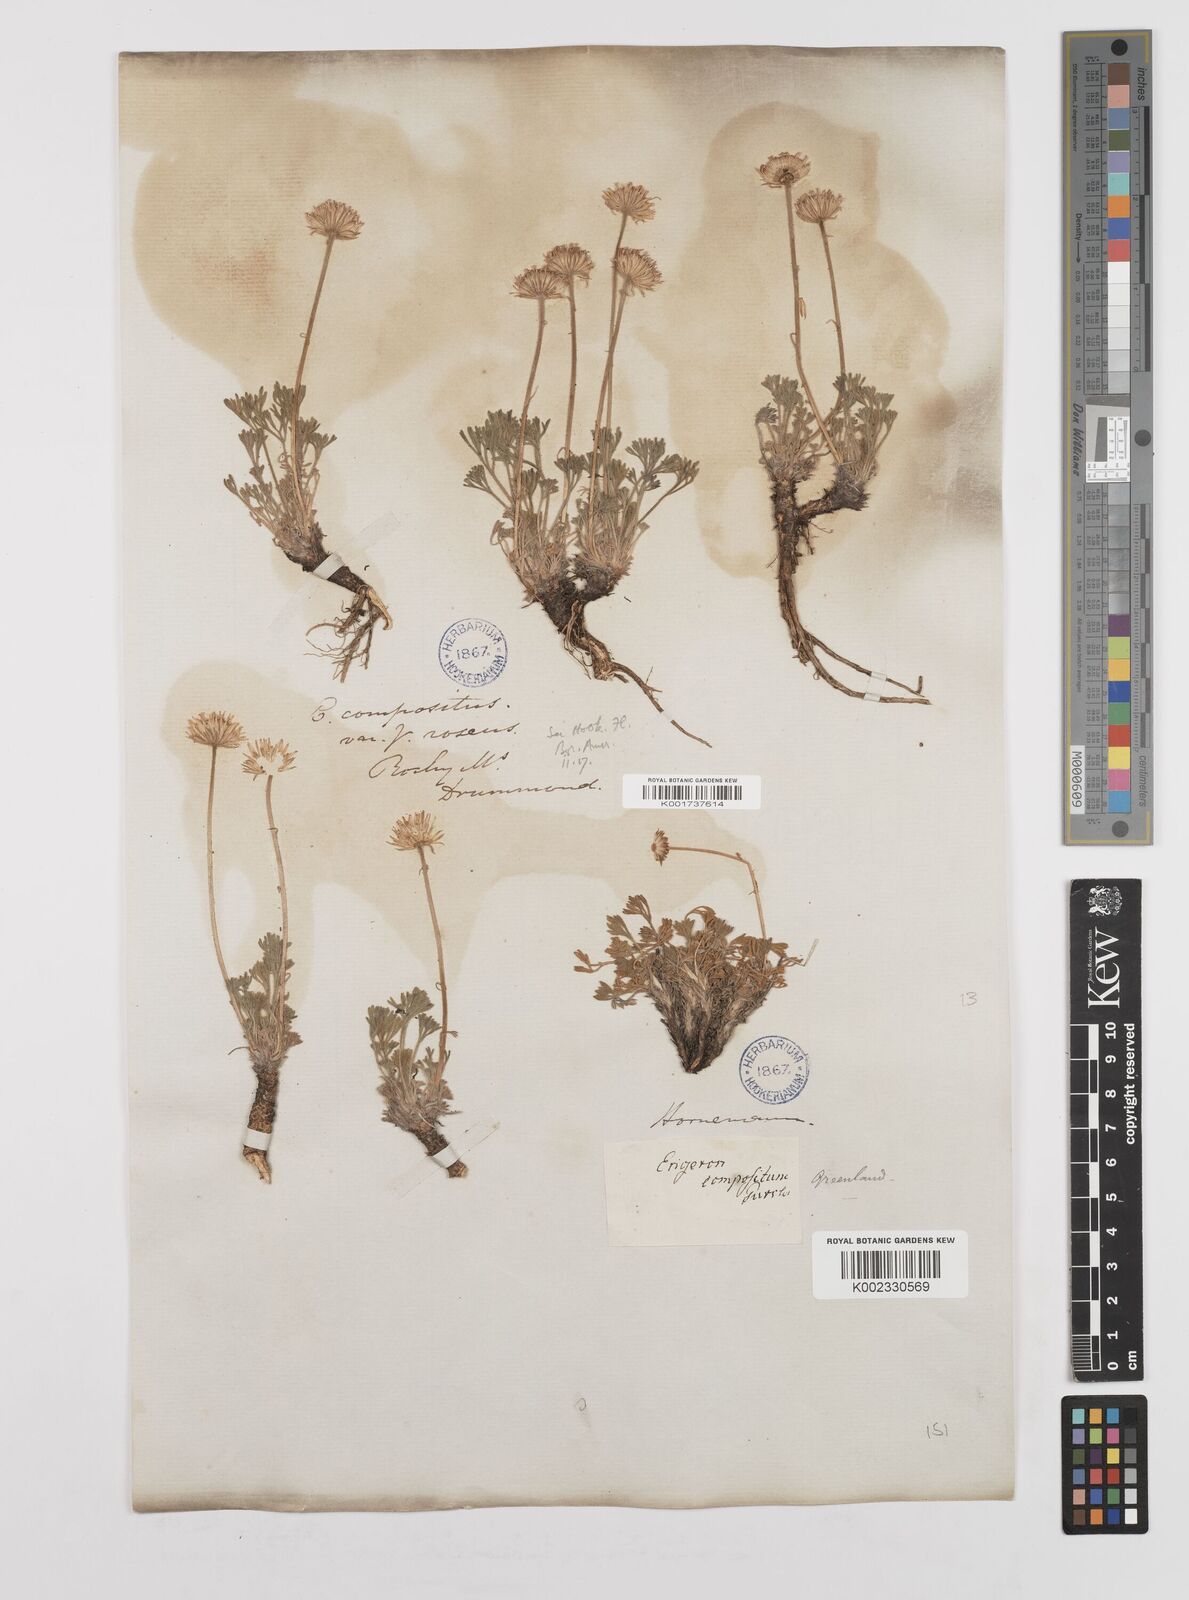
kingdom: Plantae
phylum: Tracheophyta
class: Magnoliopsida
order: Asterales
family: Asteraceae
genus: Erigeron
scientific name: Erigeron compositus
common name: Dwarf mountain fleabane
